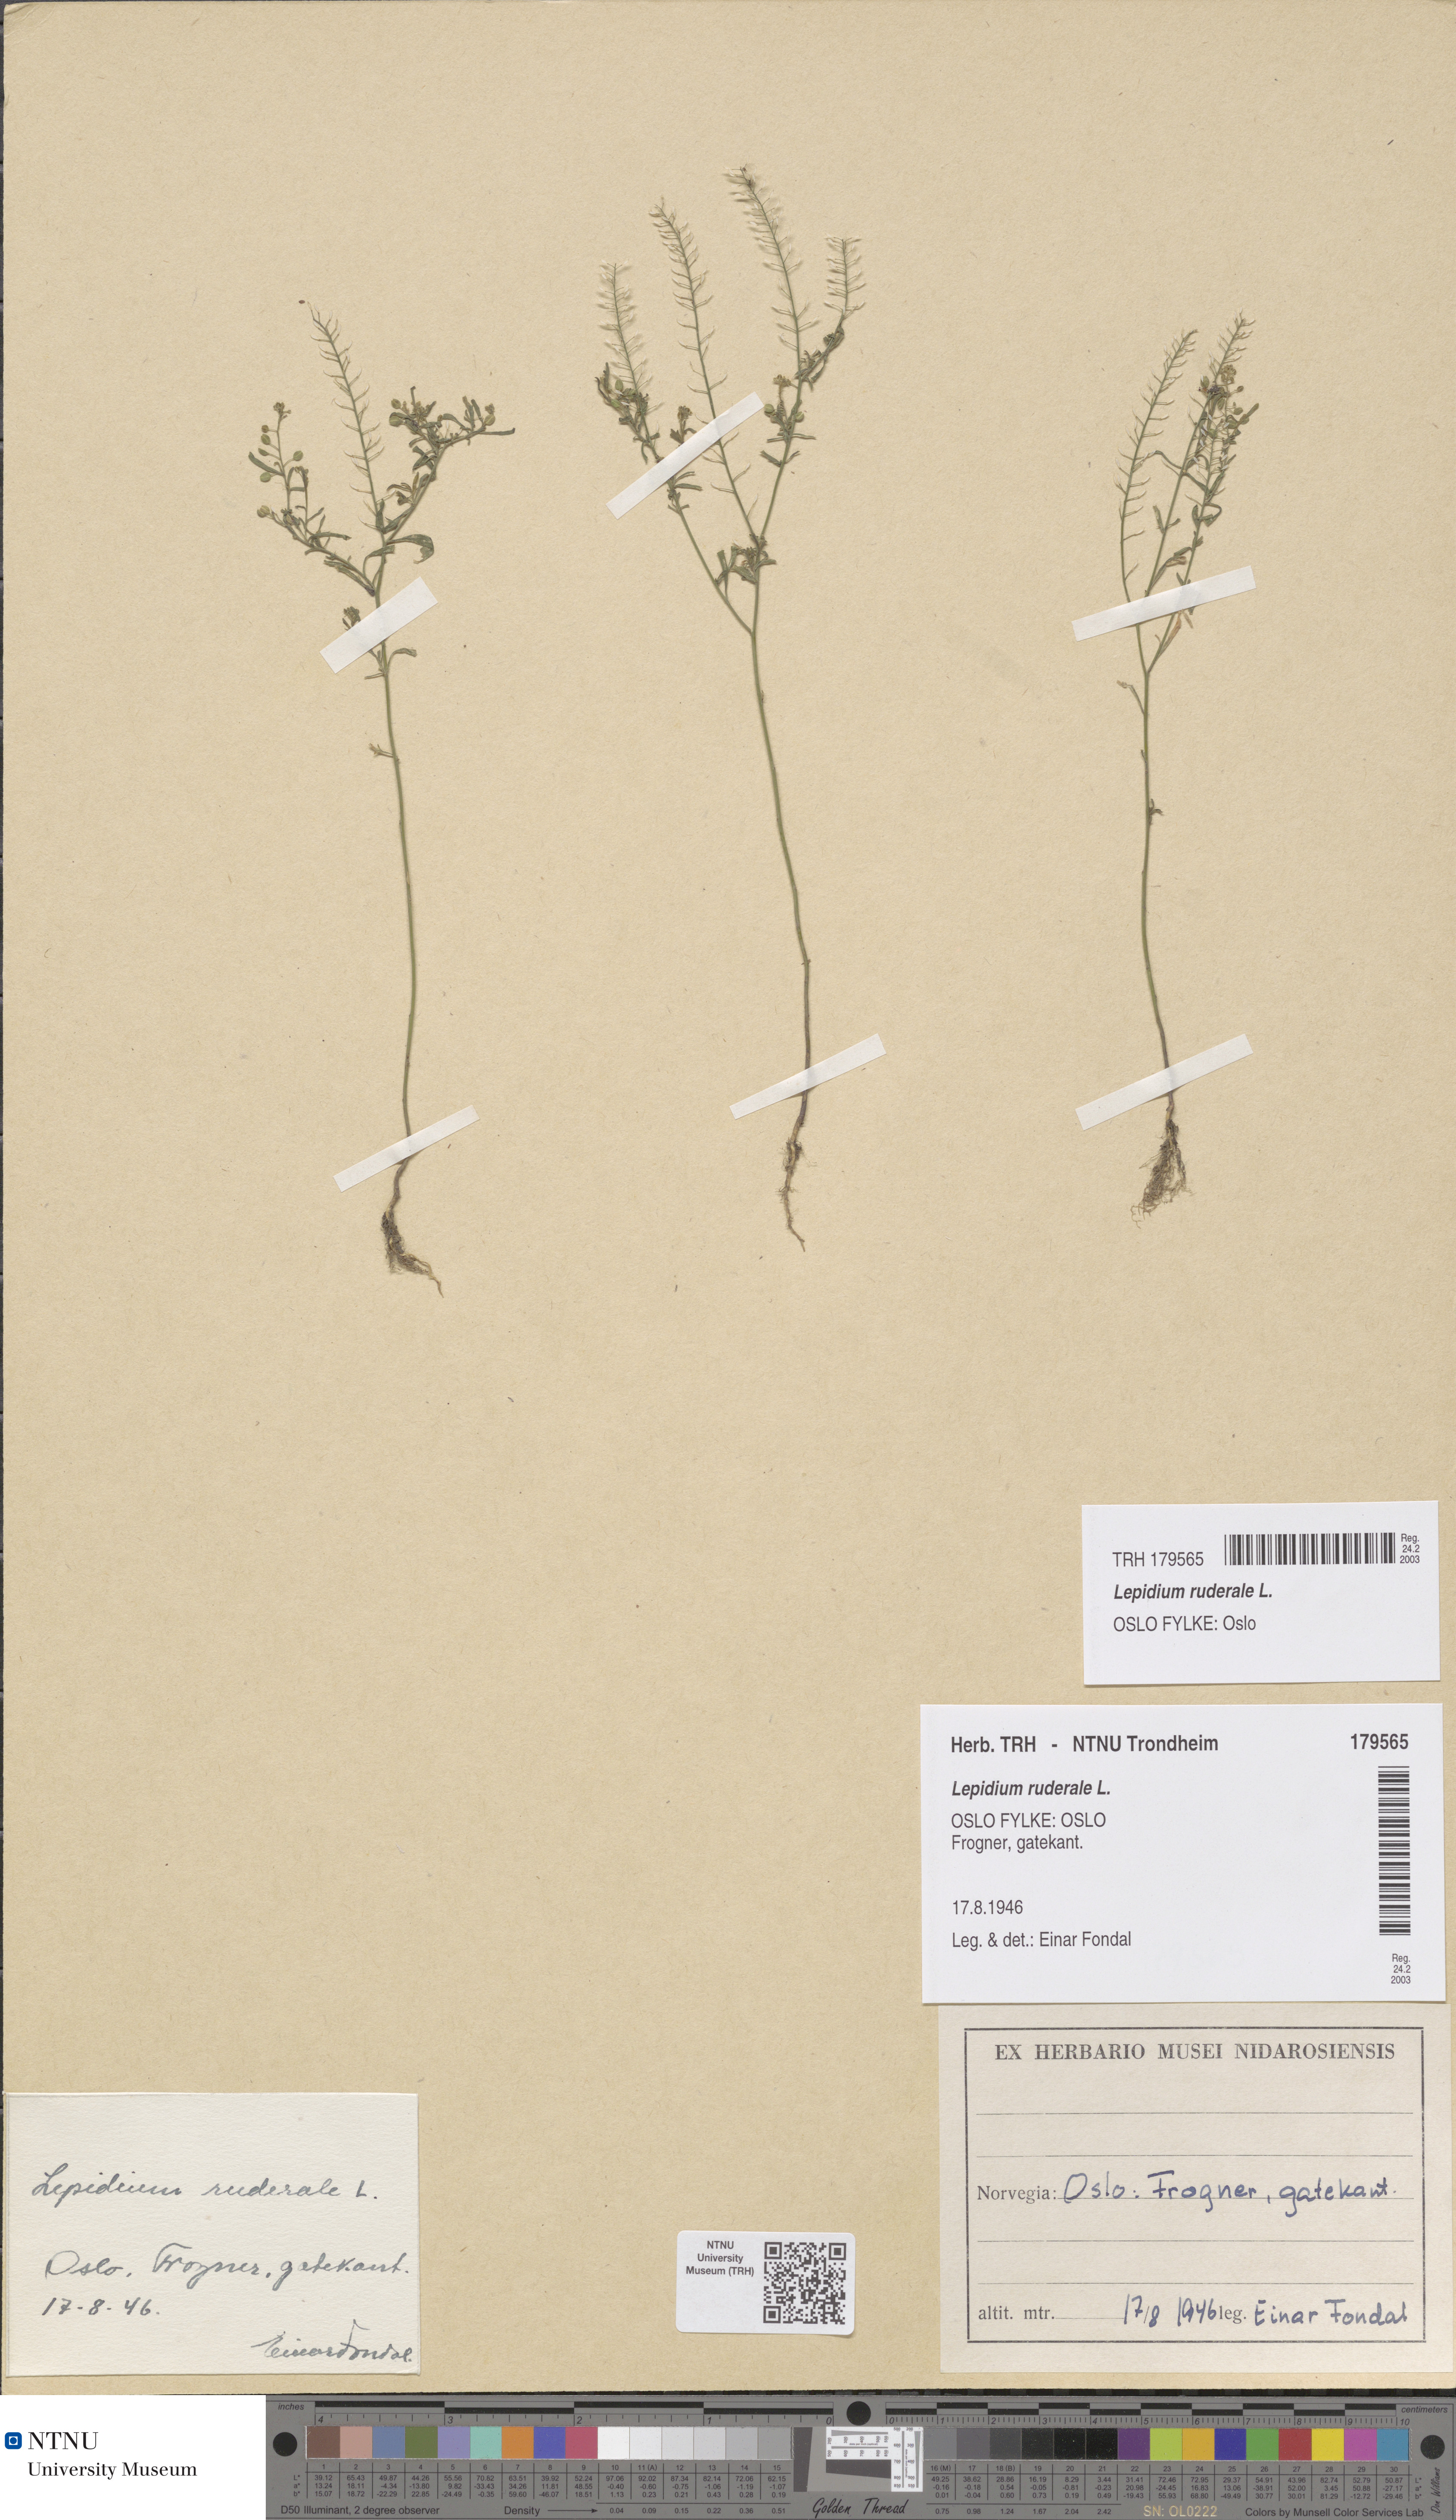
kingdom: Plantae
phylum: Tracheophyta
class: Magnoliopsida
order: Brassicales
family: Brassicaceae
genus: Lepidium
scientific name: Lepidium ruderale
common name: Narrow-leaved pepperwort
